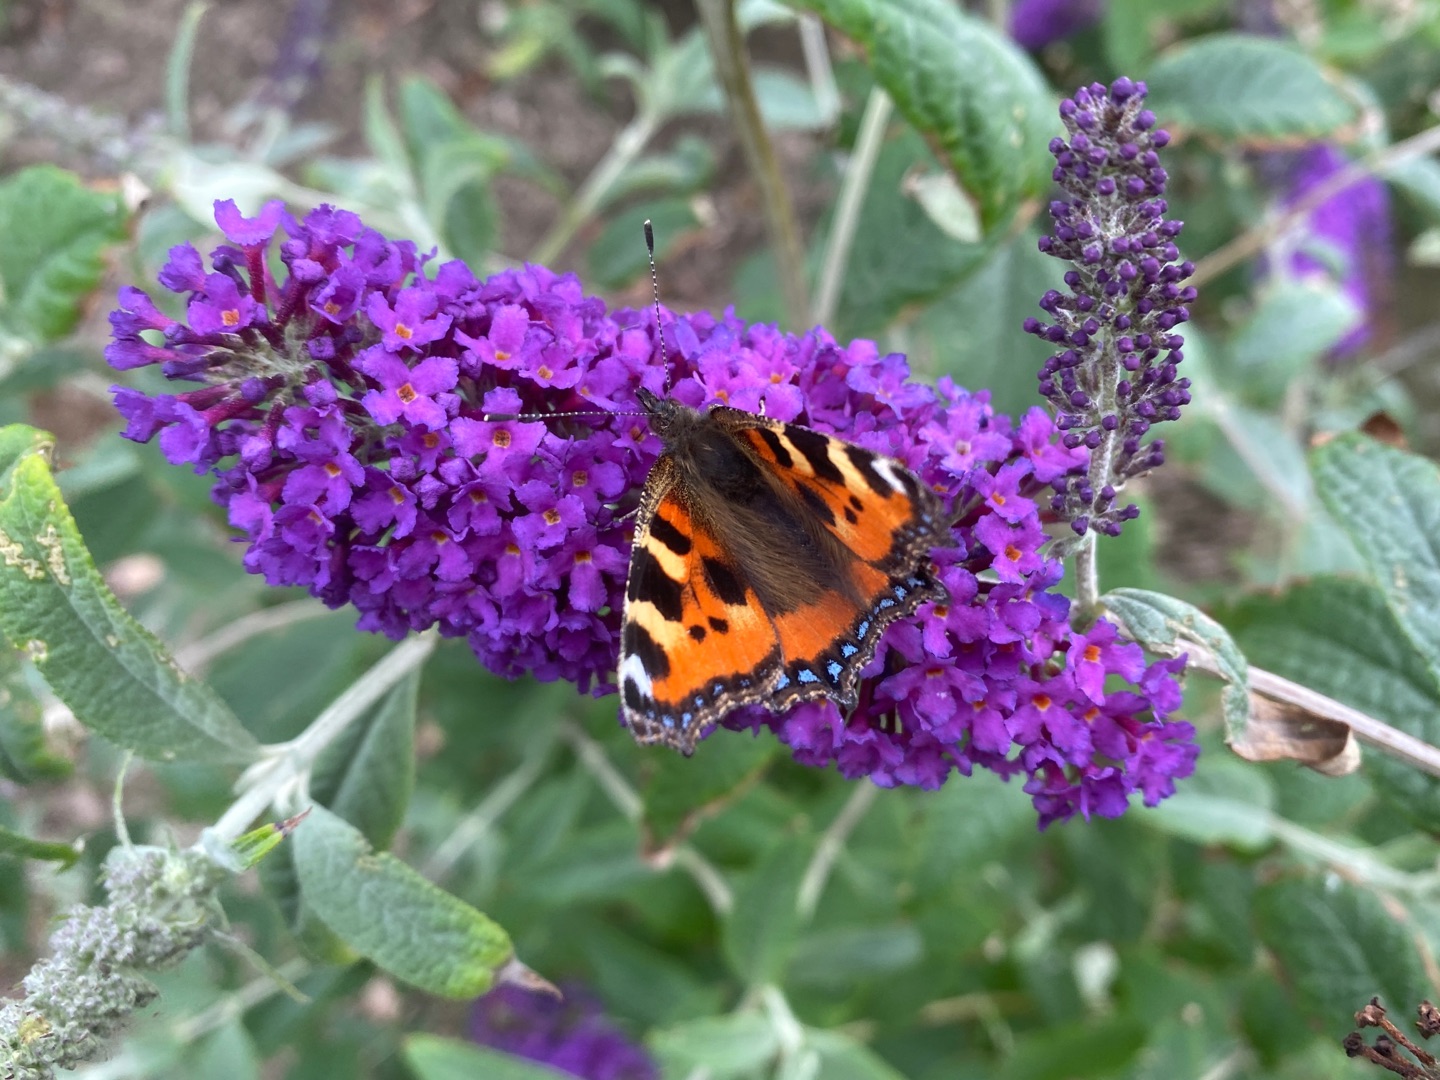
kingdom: Animalia
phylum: Arthropoda
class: Insecta
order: Lepidoptera
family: Nymphalidae
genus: Aglais
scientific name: Aglais urticae
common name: Nældens takvinge
